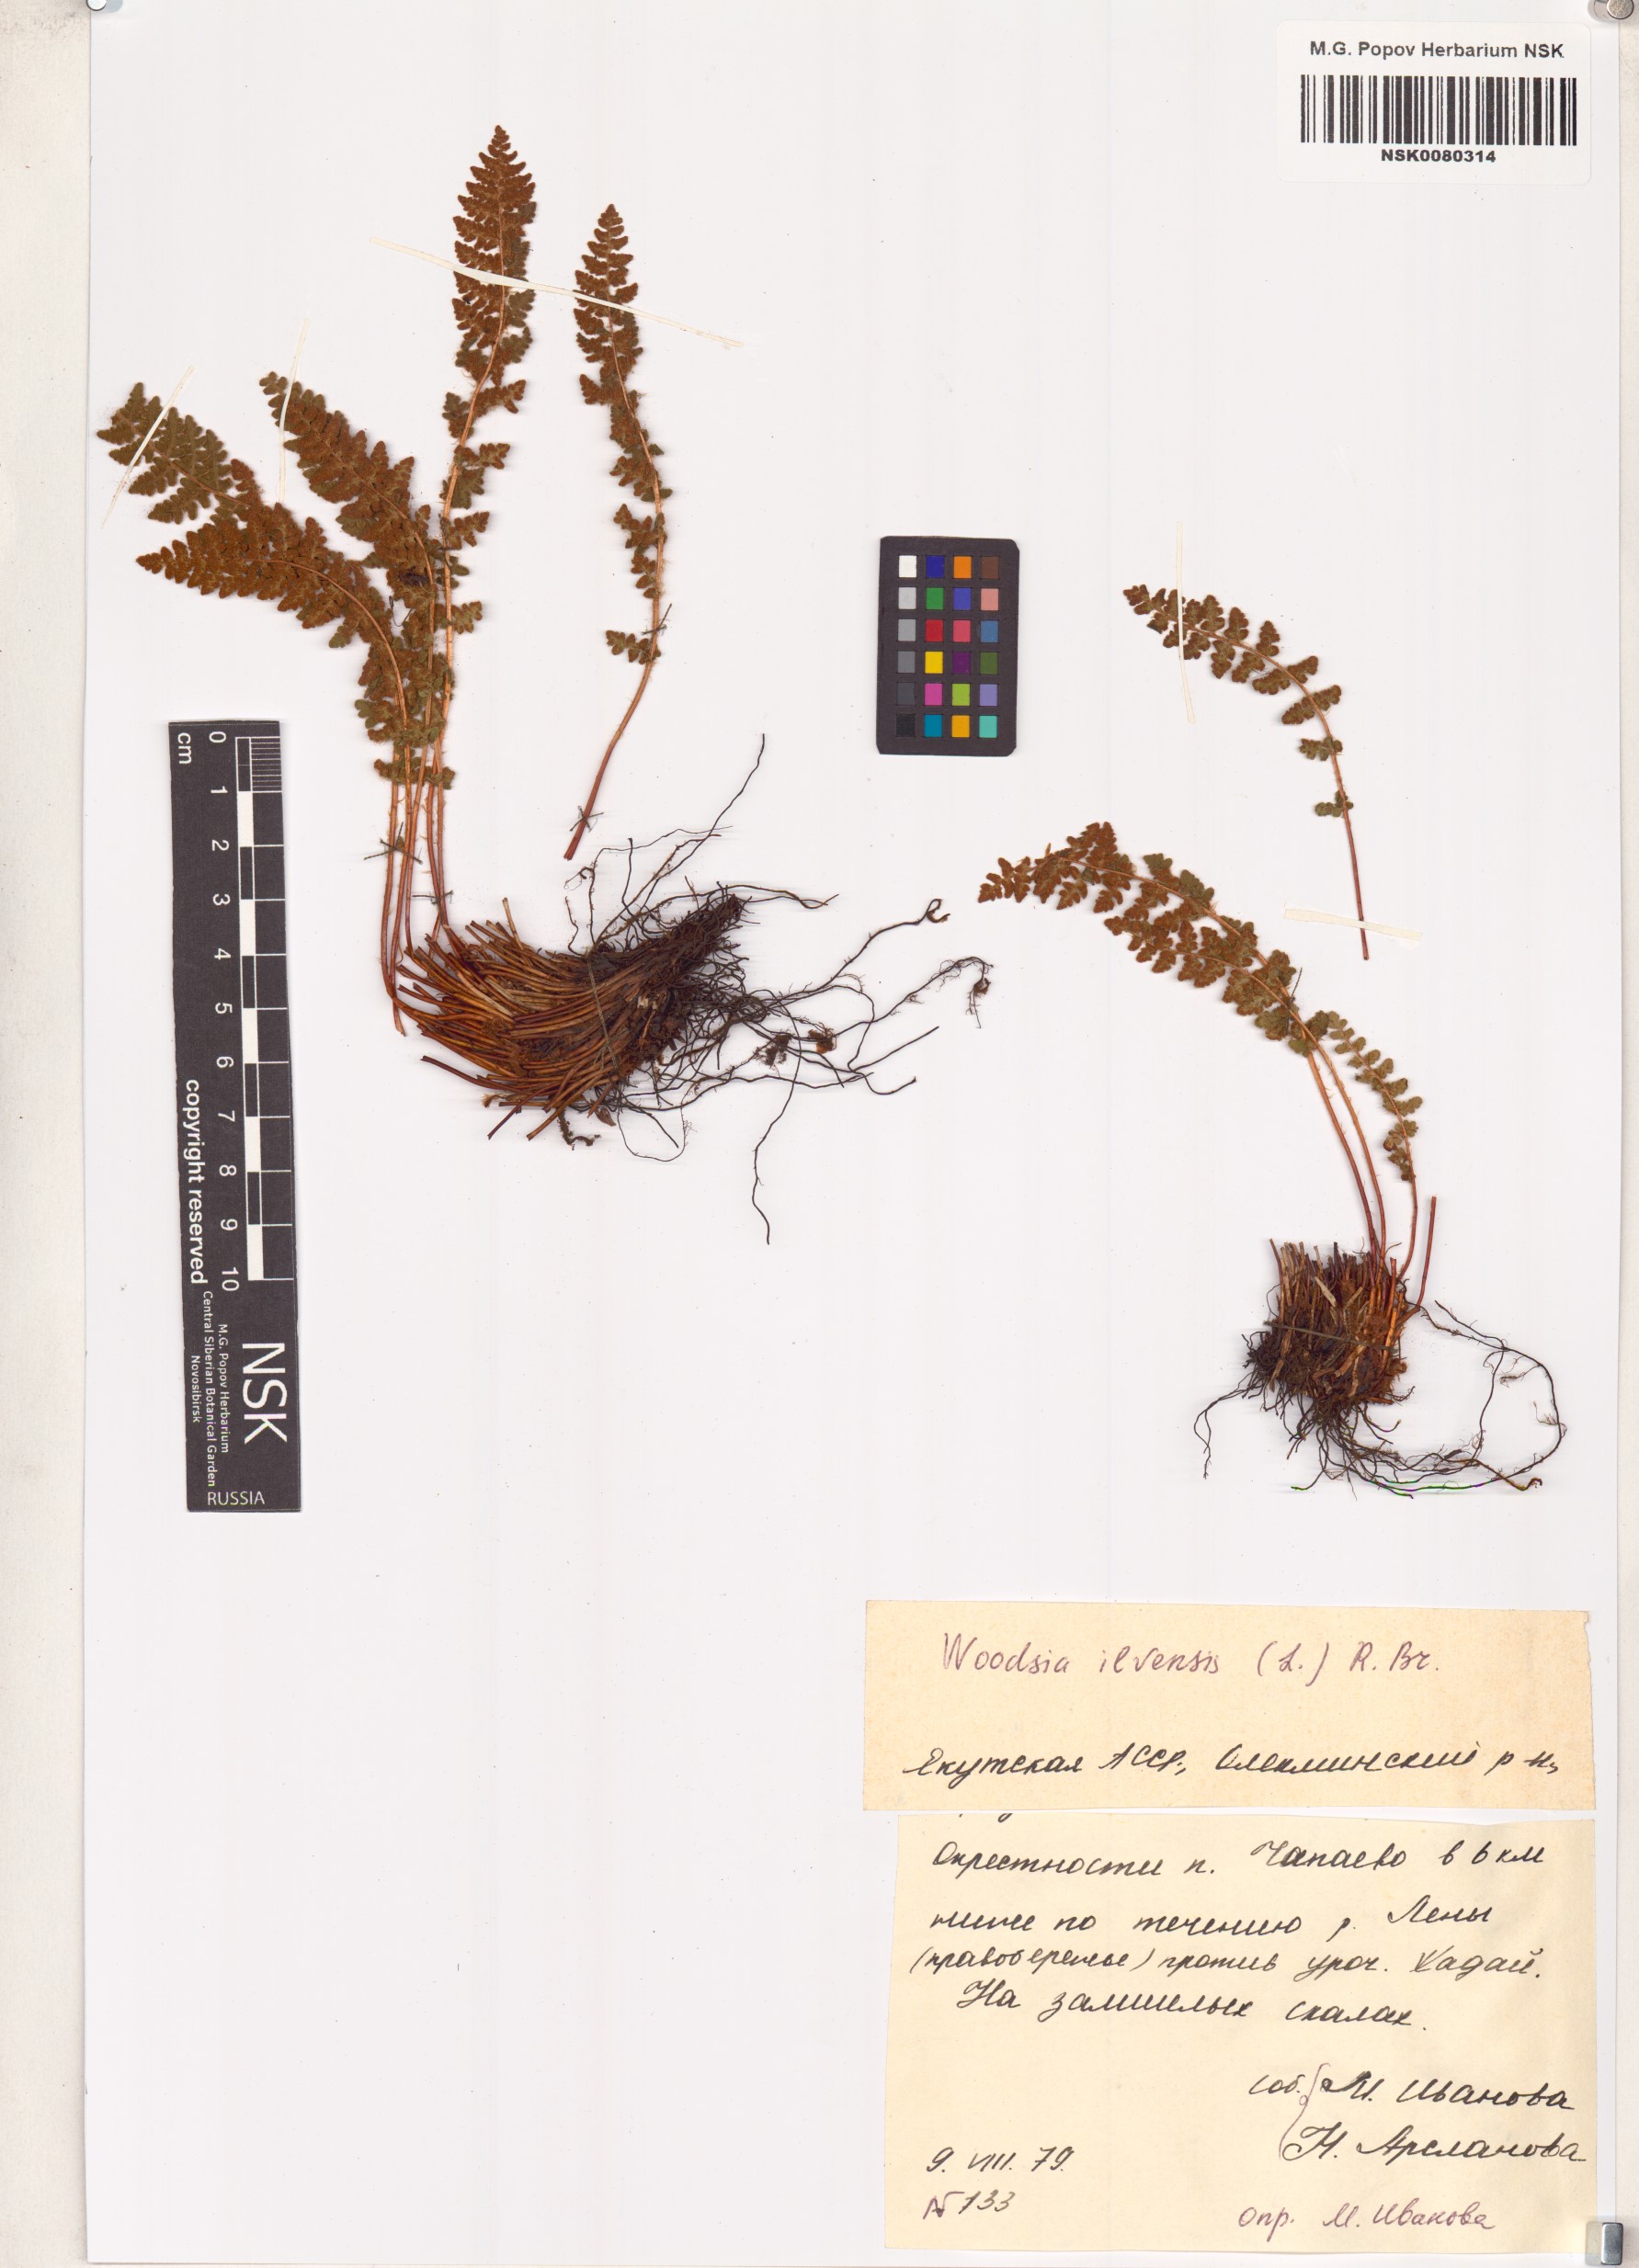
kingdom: Plantae
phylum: Tracheophyta
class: Polypodiopsida
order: Polypodiales
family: Woodsiaceae
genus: Woodsia
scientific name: Woodsia ilvensis
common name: Fragrant woodsia
